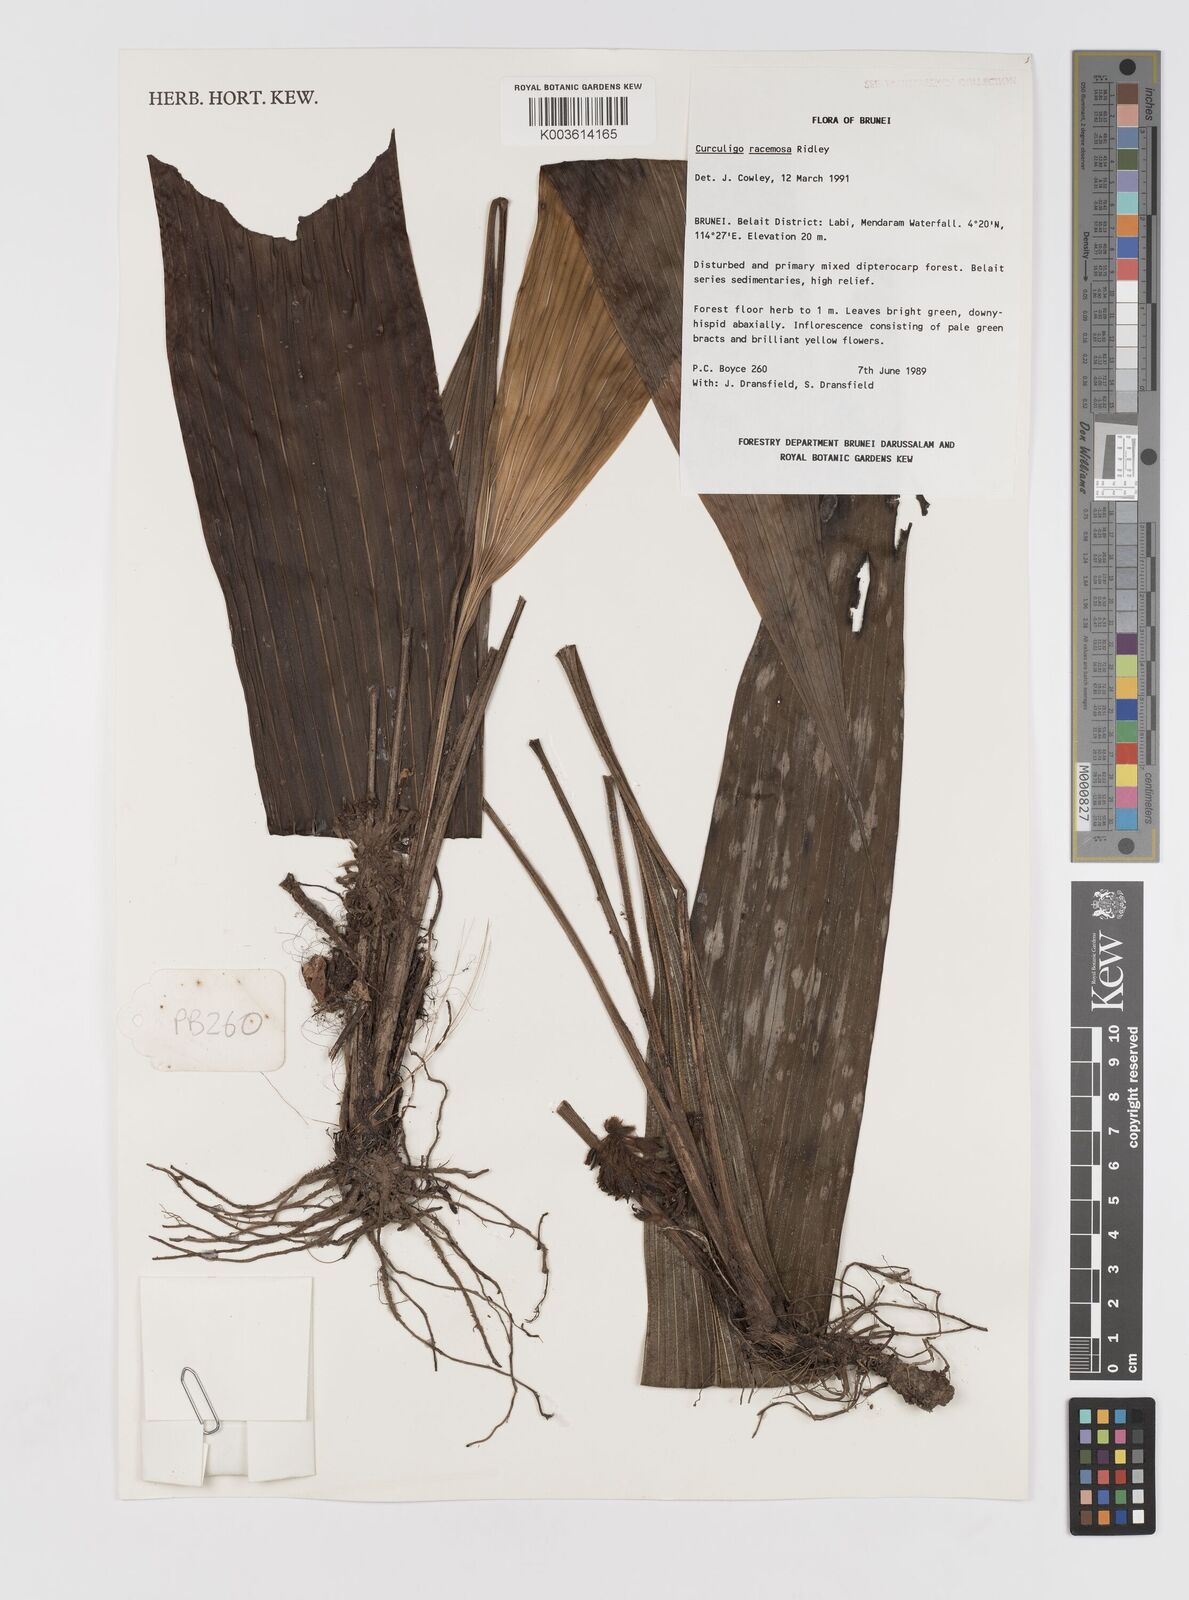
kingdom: Plantae
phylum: Tracheophyta
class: Liliopsida
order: Asparagales
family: Hypoxidaceae
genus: Curculigo
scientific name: Curculigo racemosa
